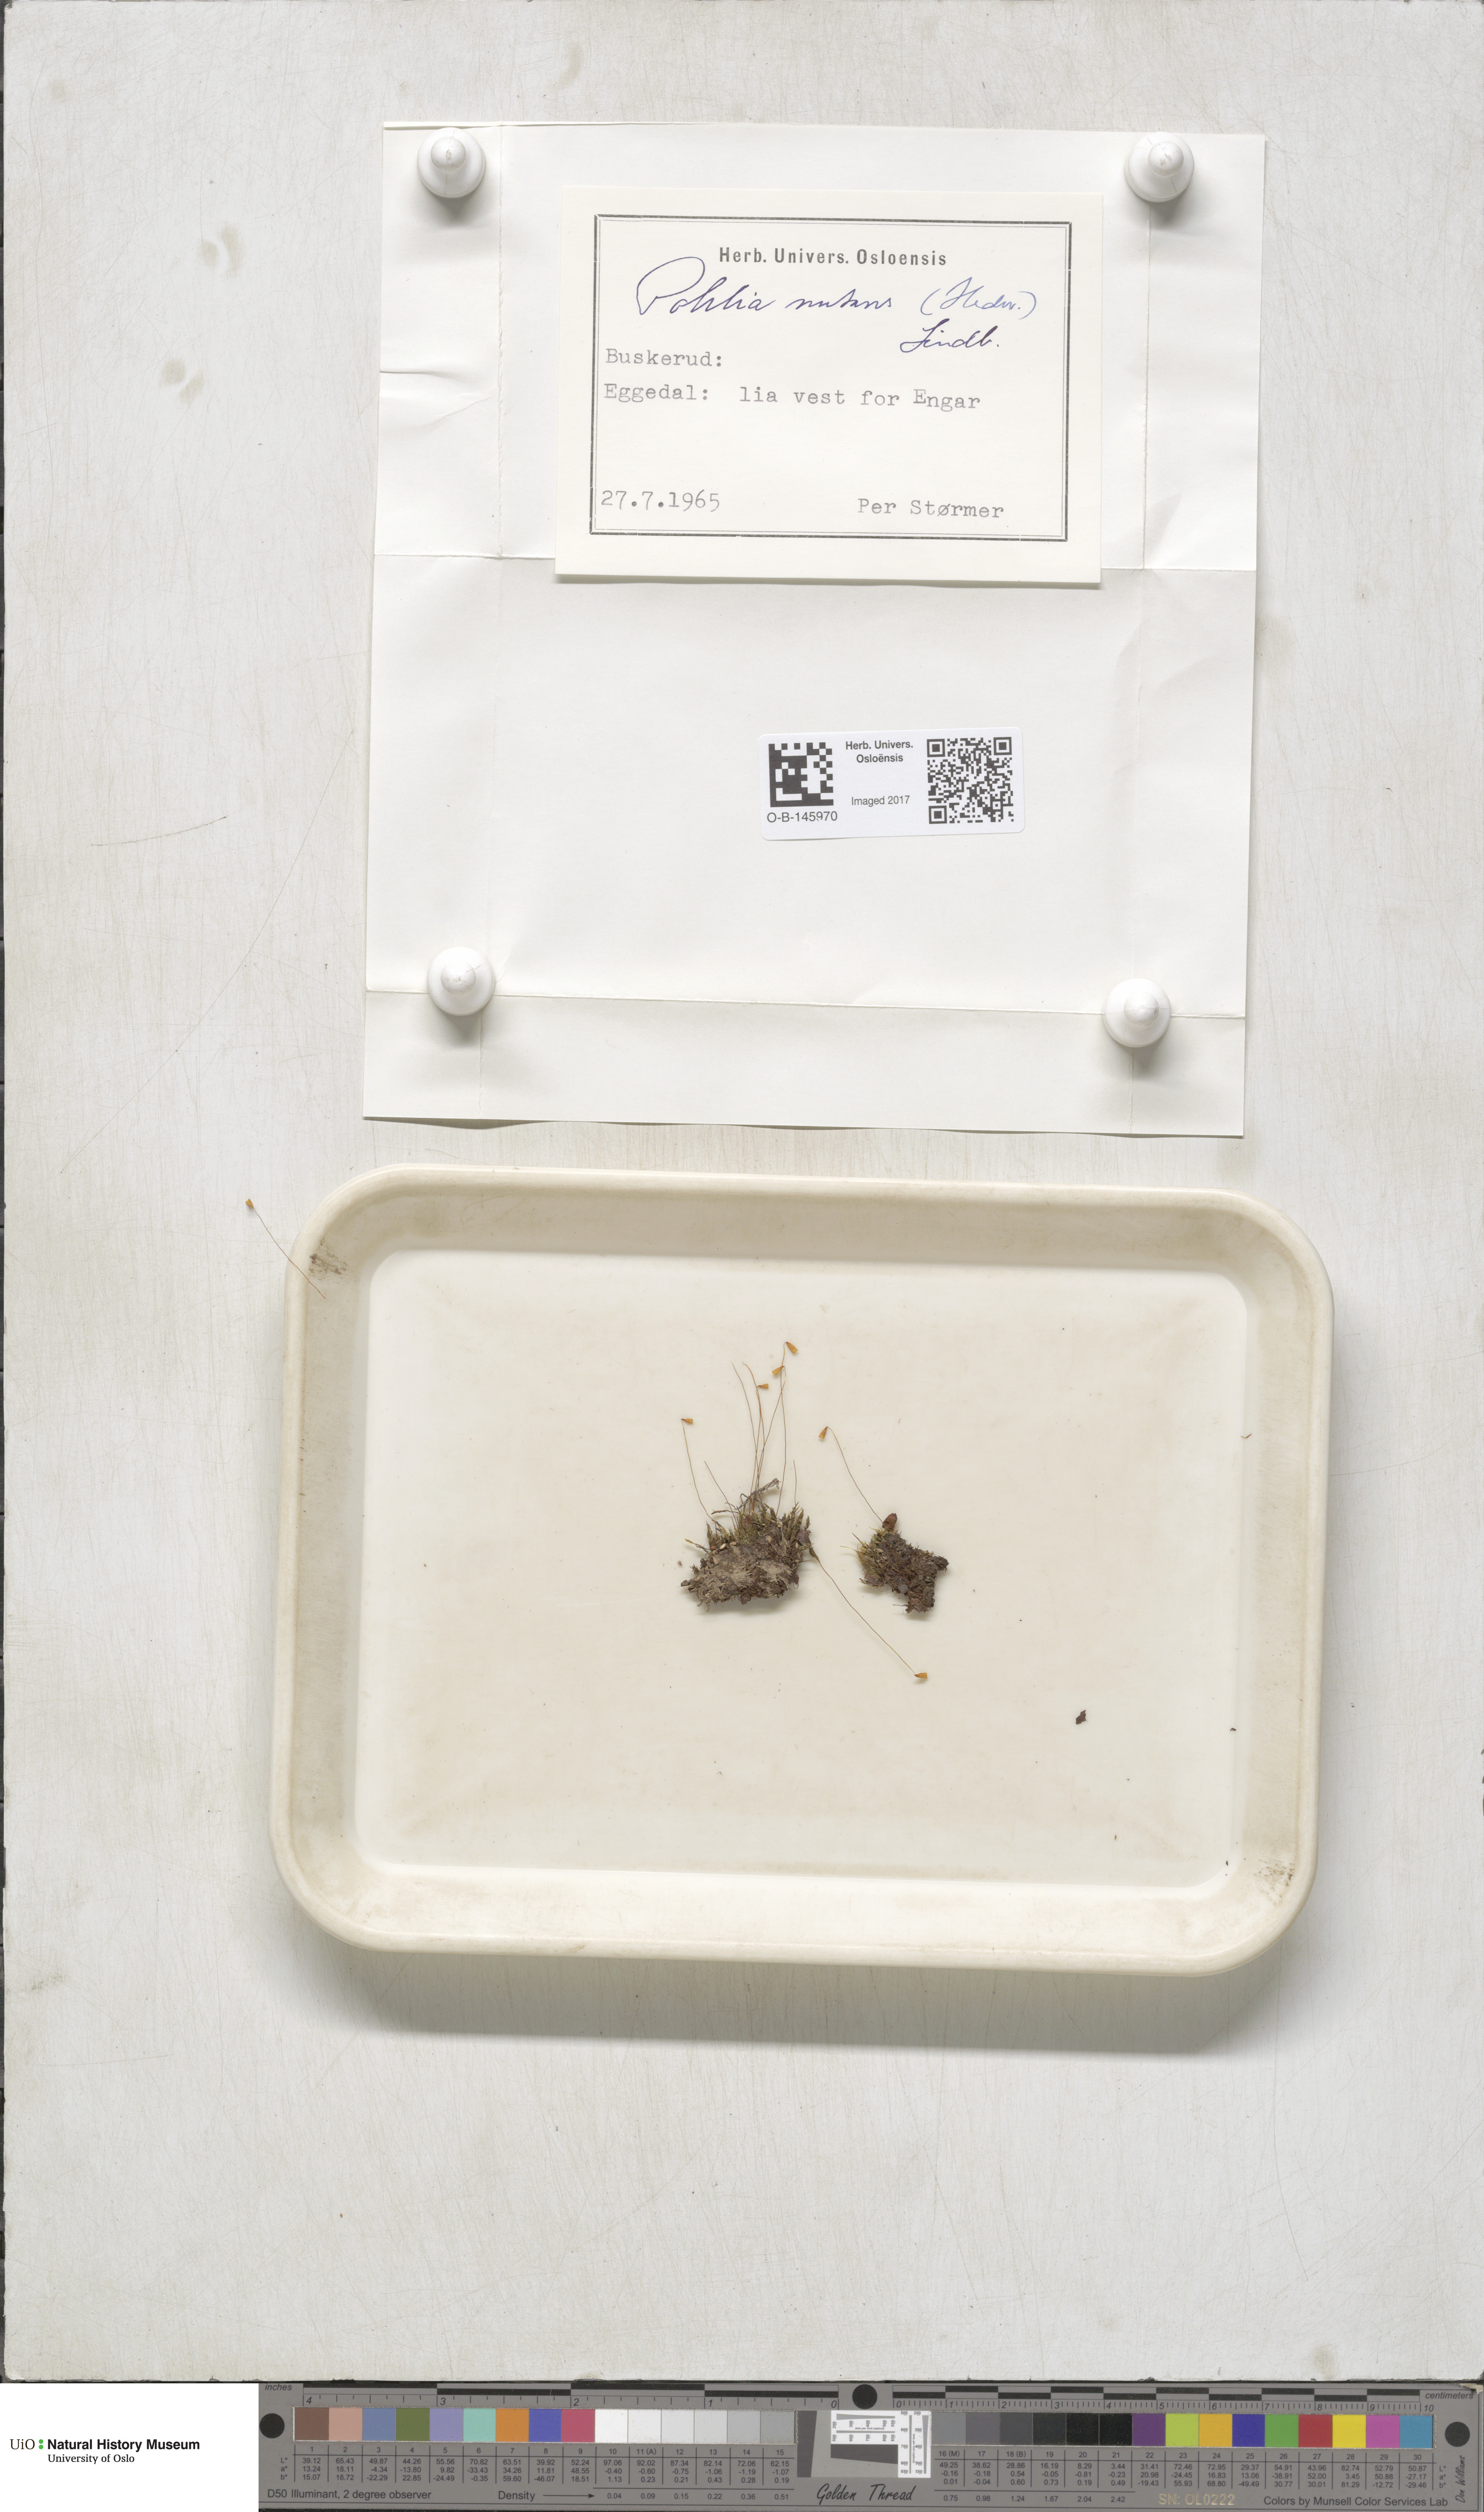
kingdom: Plantae
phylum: Bryophyta
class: Bryopsida
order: Bryales
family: Mniaceae
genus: Pohlia
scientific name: Pohlia nutans
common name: Nodding thread-moss
